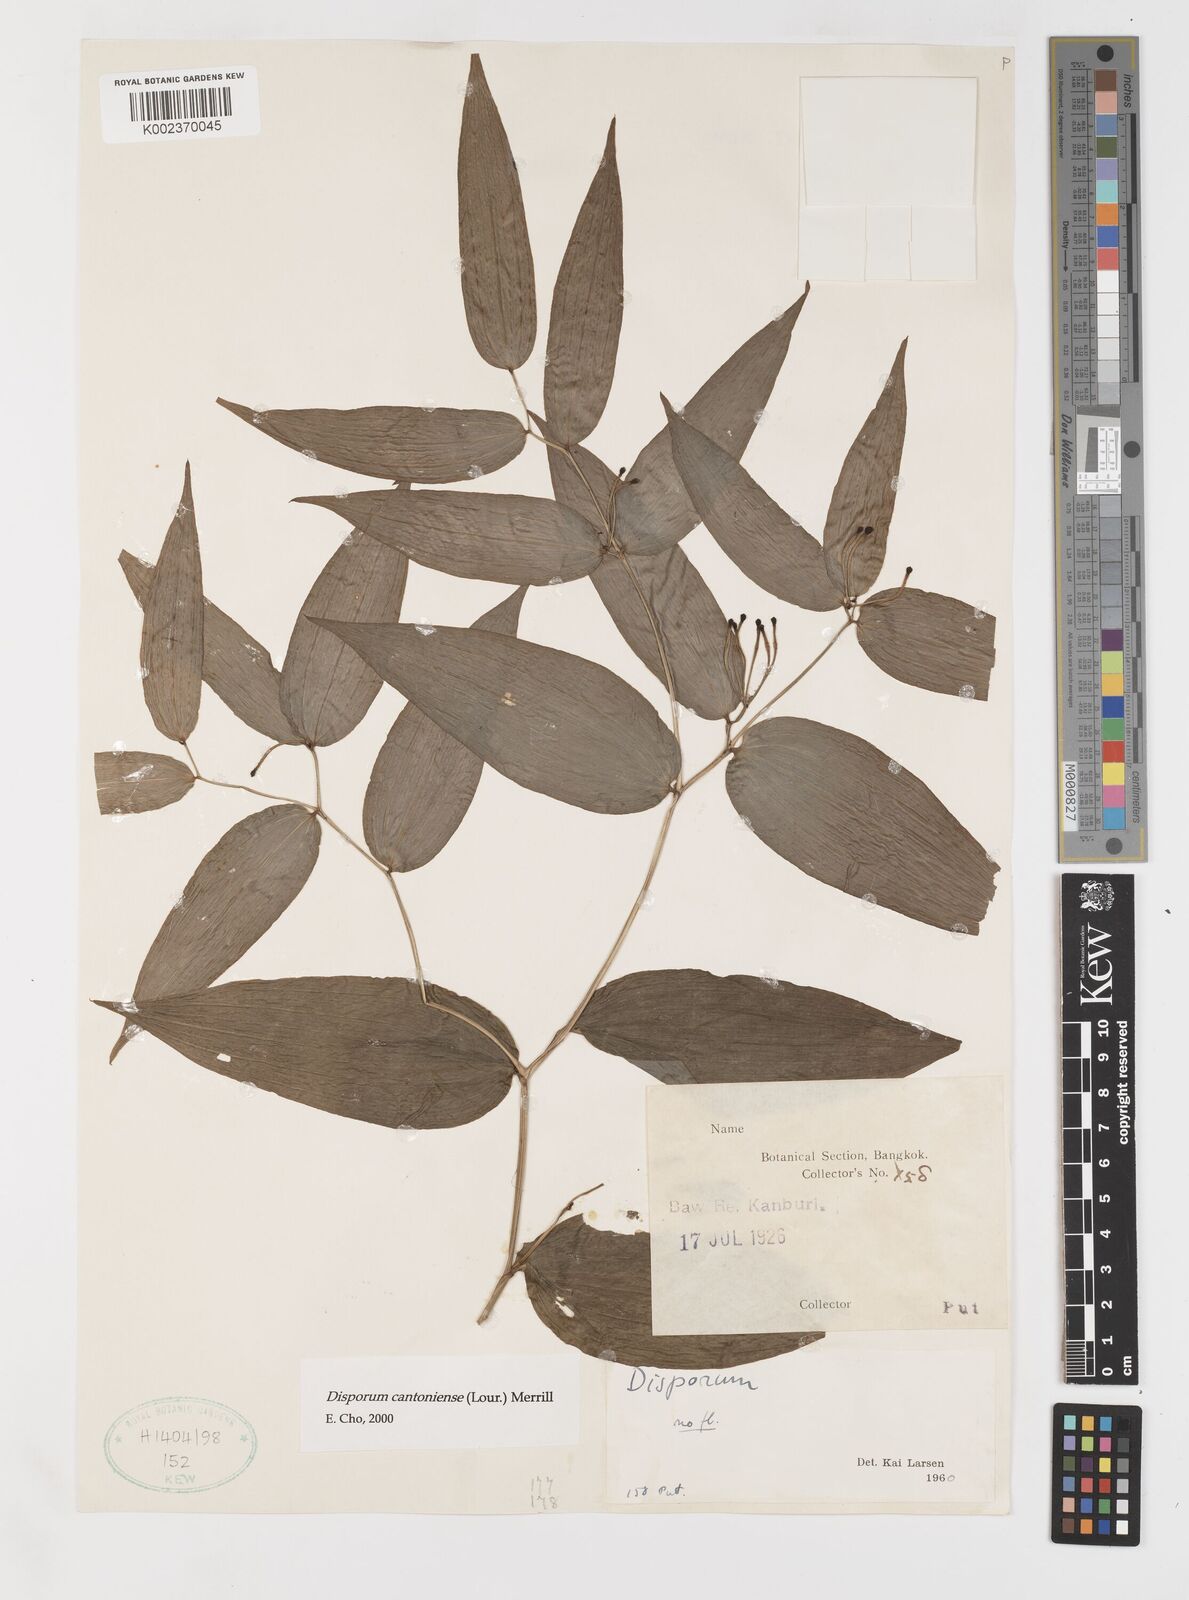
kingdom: Plantae
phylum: Tracheophyta
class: Liliopsida
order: Liliales
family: Colchicaceae
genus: Disporum
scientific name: Disporum cantoniense
